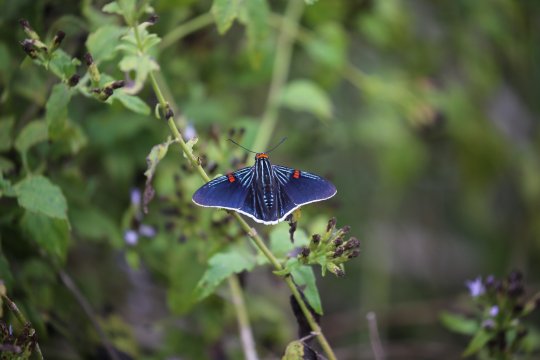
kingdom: Animalia
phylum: Arthropoda
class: Insecta
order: Lepidoptera
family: Hesperiidae
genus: Phocides
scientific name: Phocides polybius
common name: Guava Skipper
